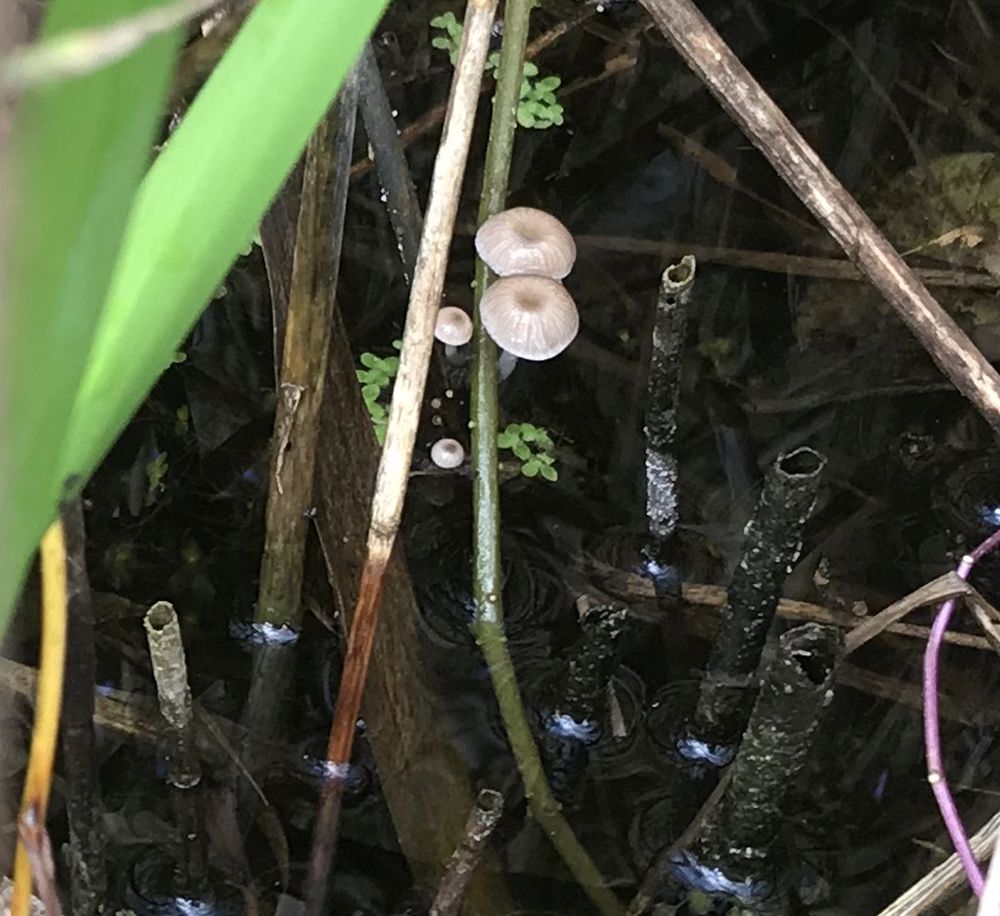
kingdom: Fungi
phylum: Basidiomycota
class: Agaricomycetes
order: Agaricales
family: Mycenaceae
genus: Mycena
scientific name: Mycena belliae
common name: tagrørs-huesvamp
